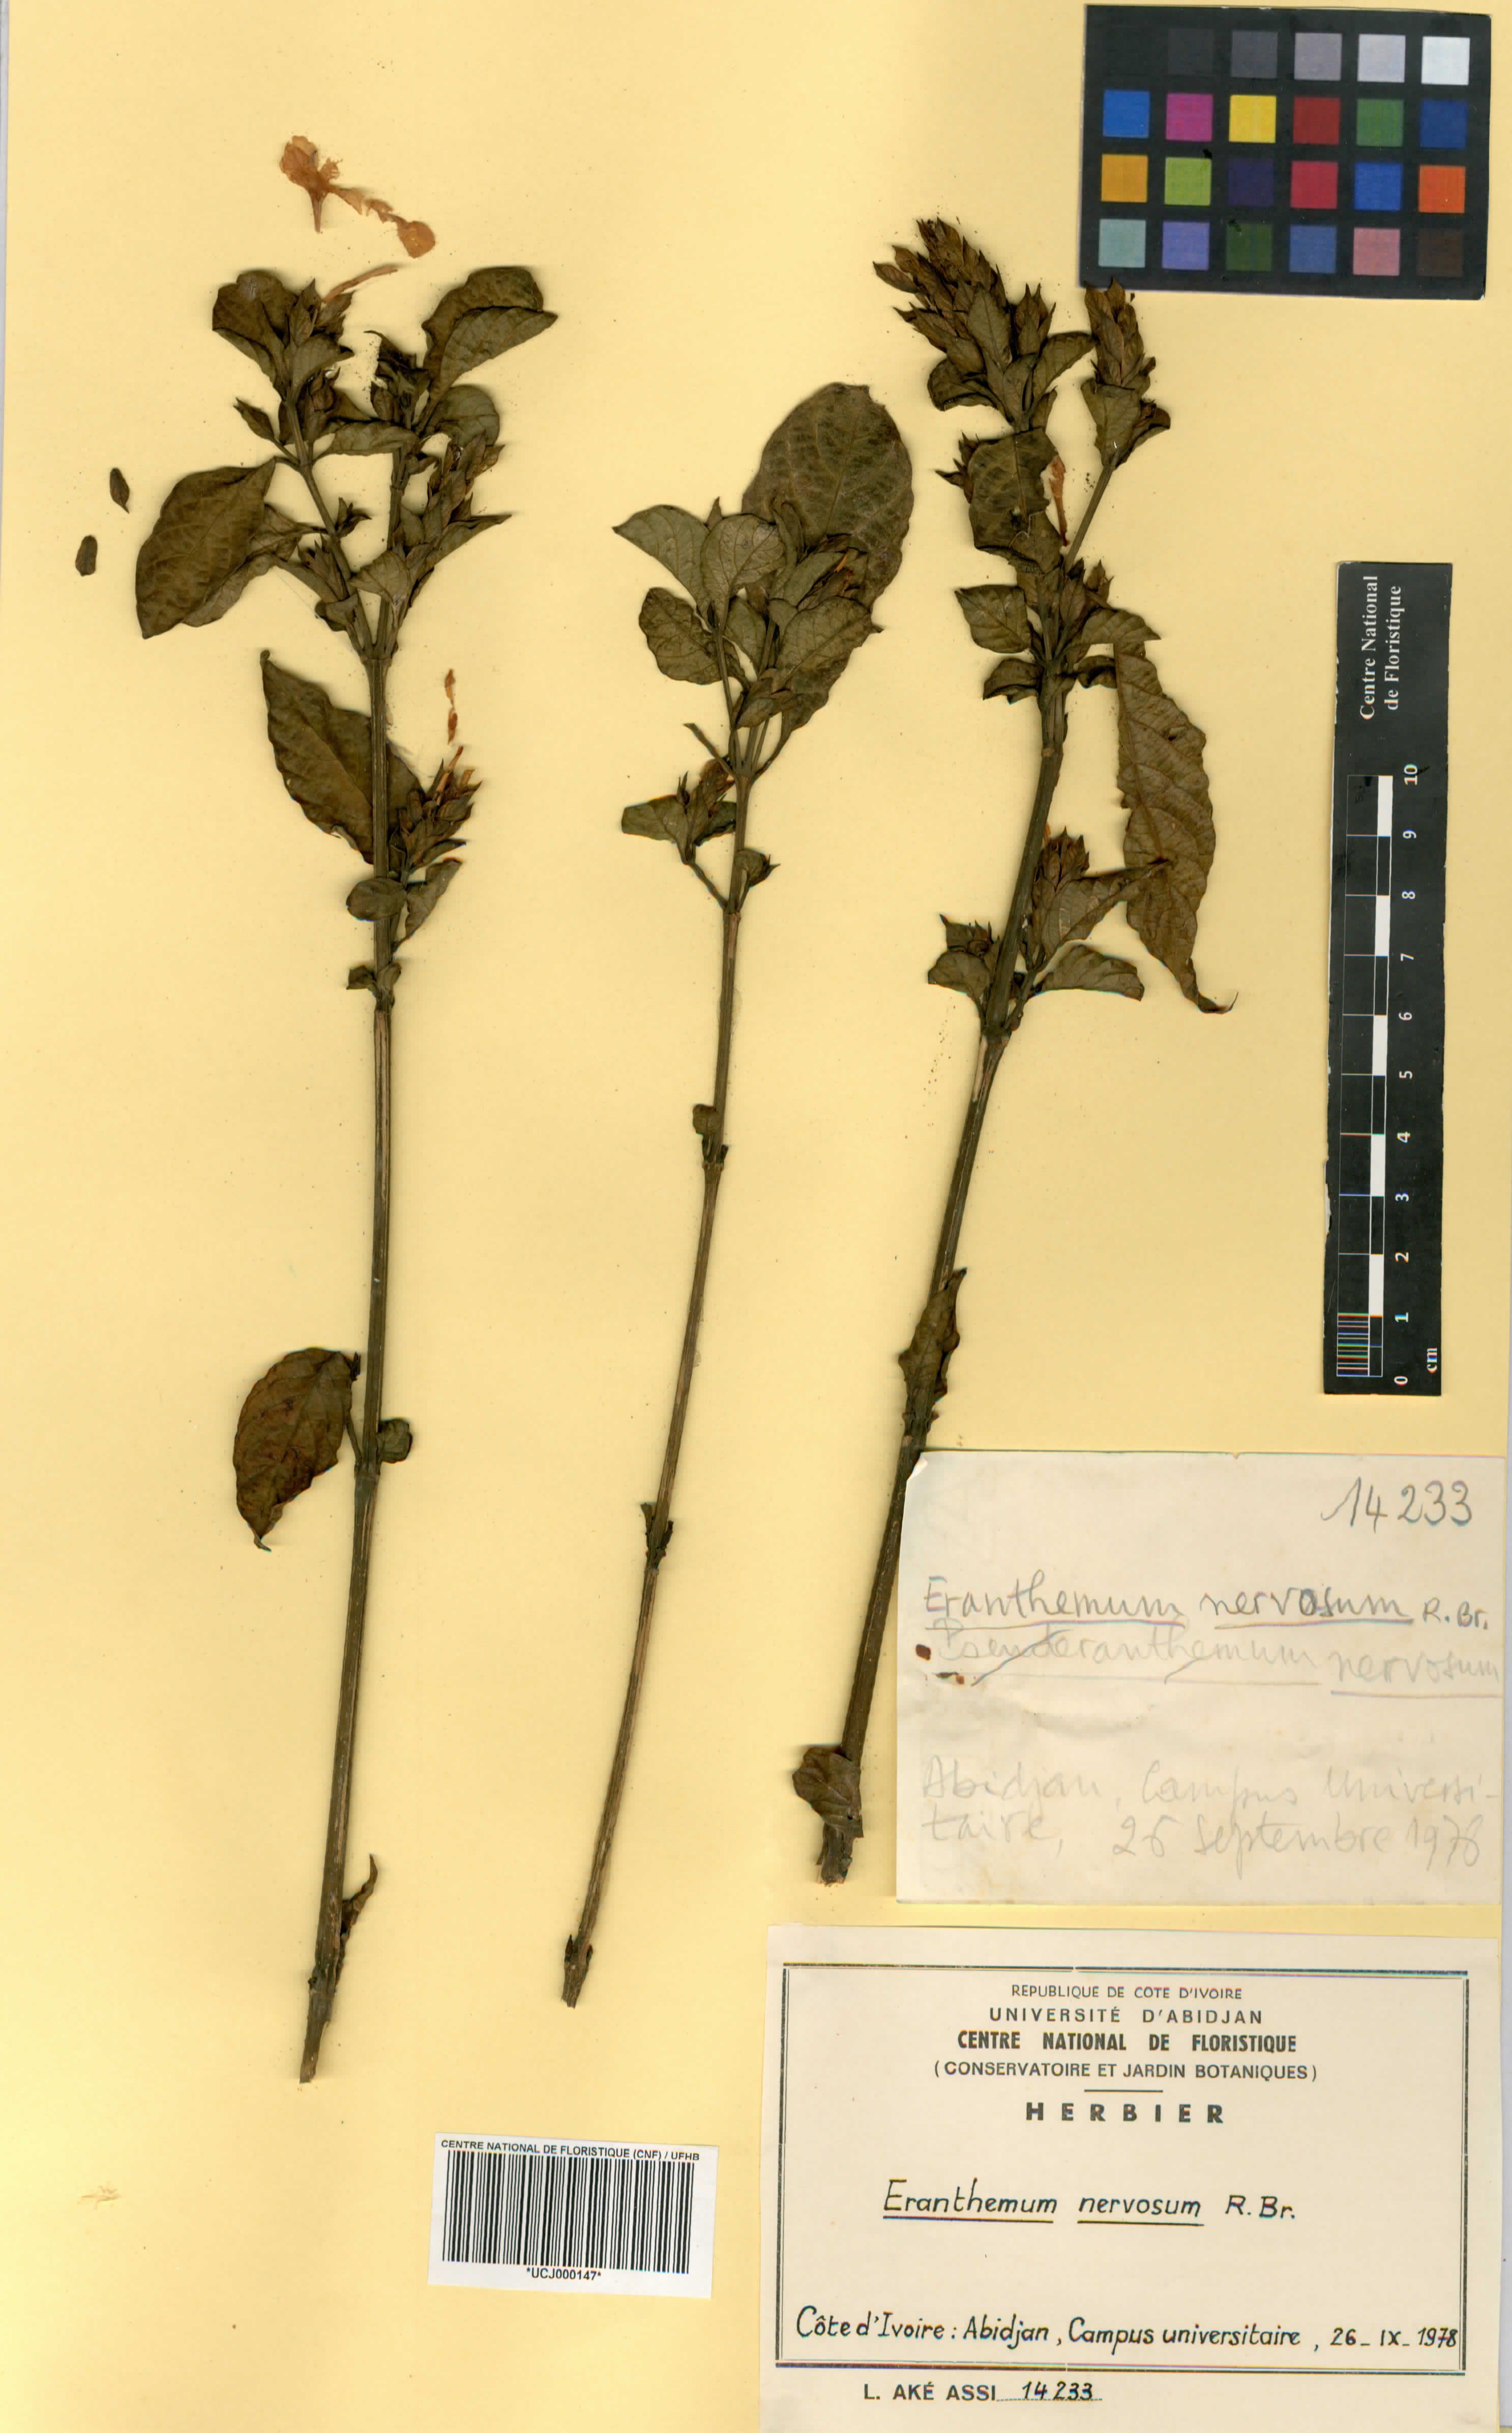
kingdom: Plantae
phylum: Tracheophyta
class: Magnoliopsida
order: Lamiales
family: Acanthaceae
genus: Eranthemum
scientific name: Eranthemum
